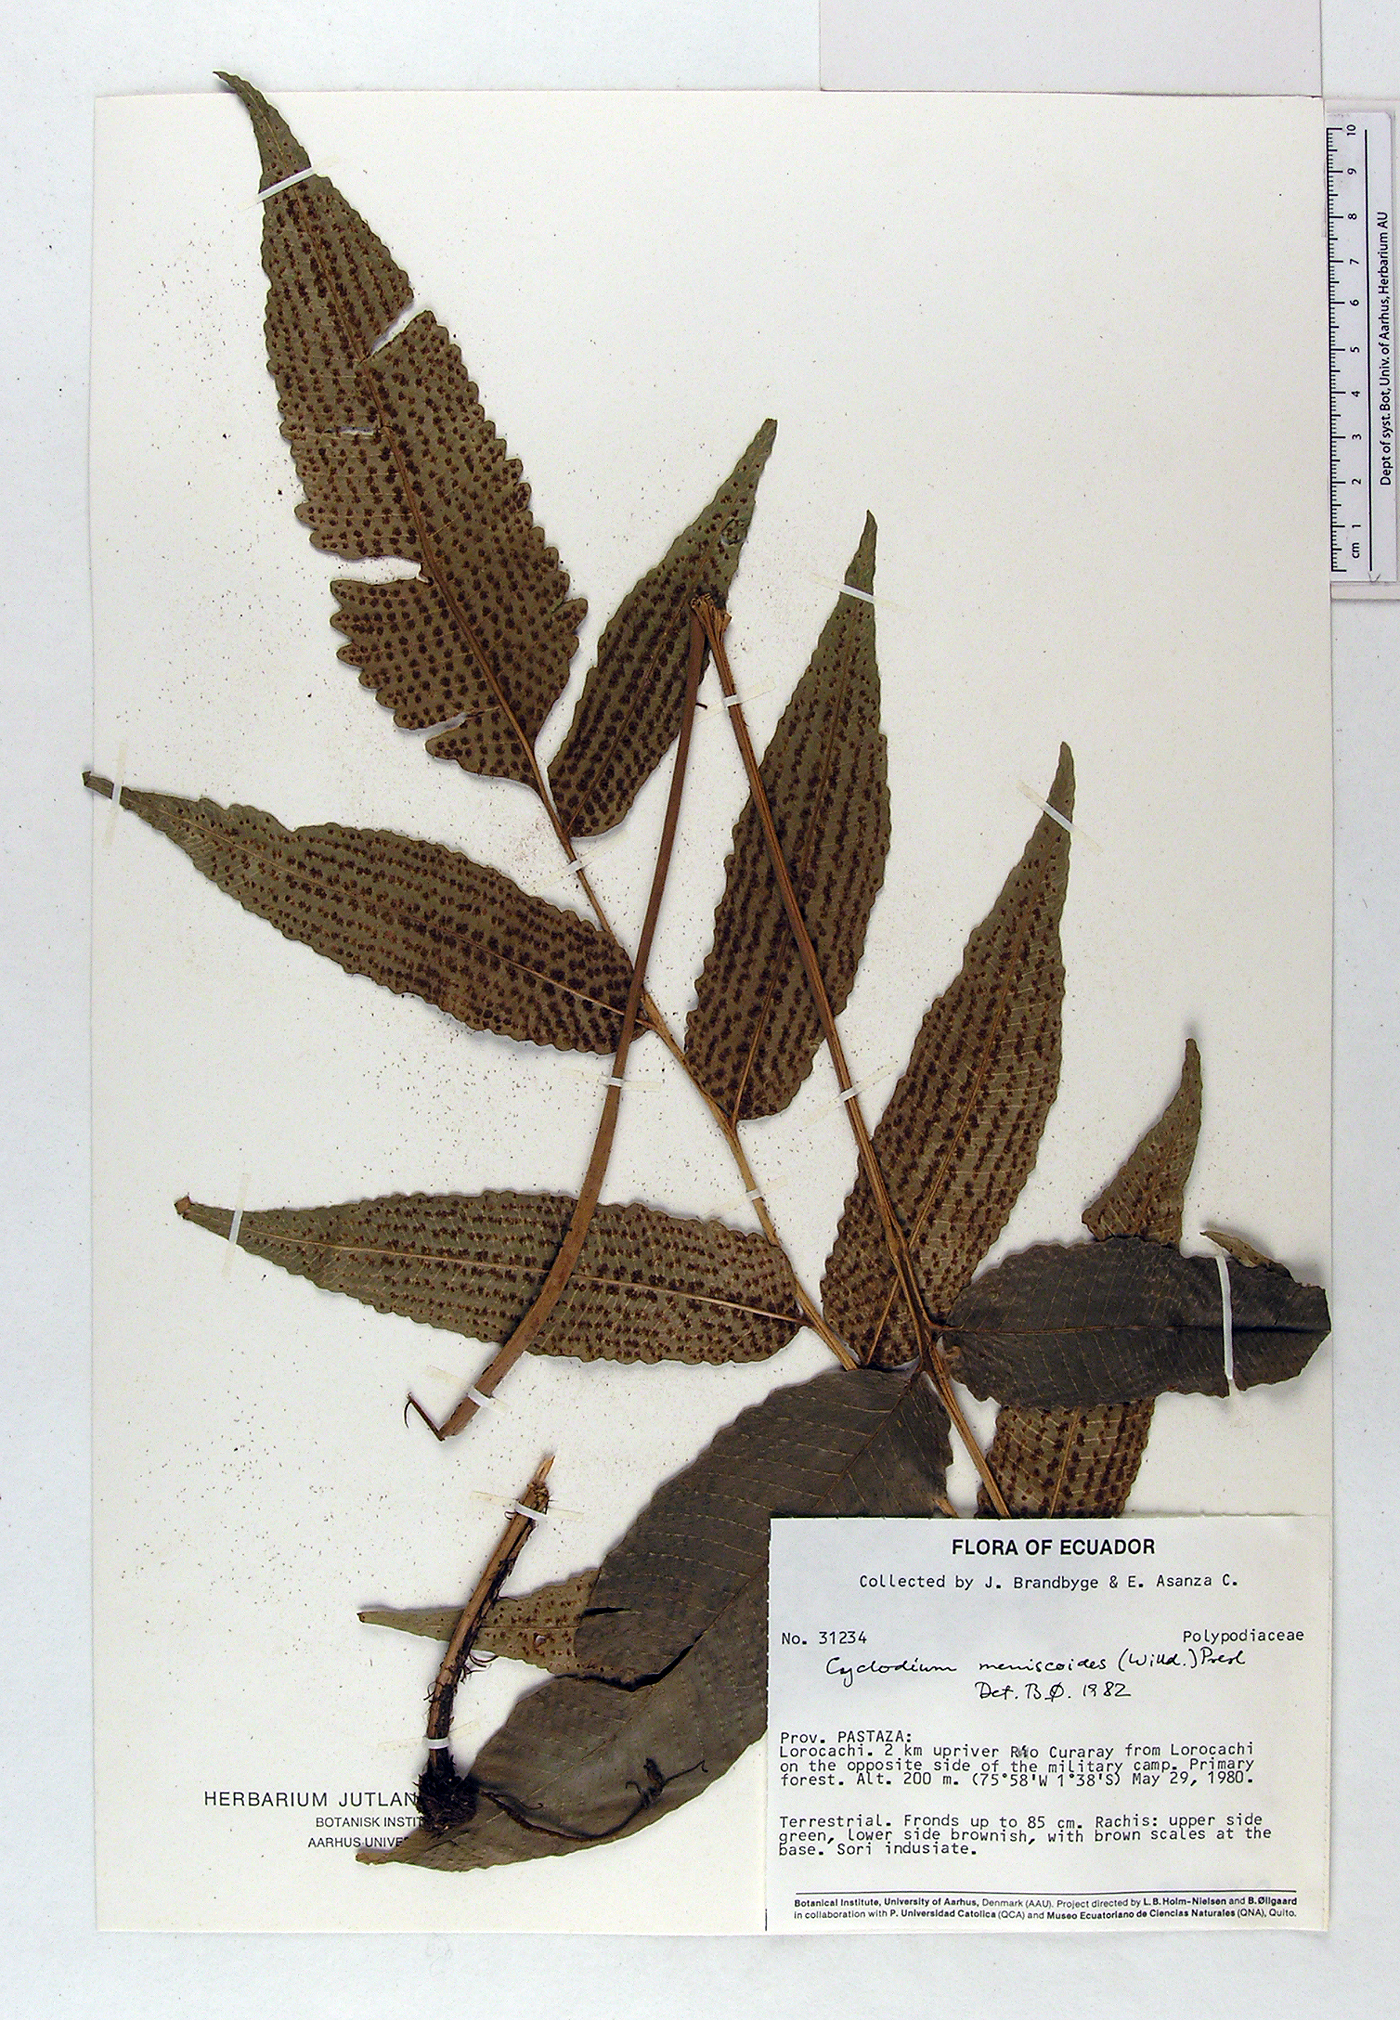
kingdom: Plantae
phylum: Tracheophyta
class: Polypodiopsida
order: Polypodiales
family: Dryopteridaceae
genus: Cyclodium
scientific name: Cyclodium meniscioides
